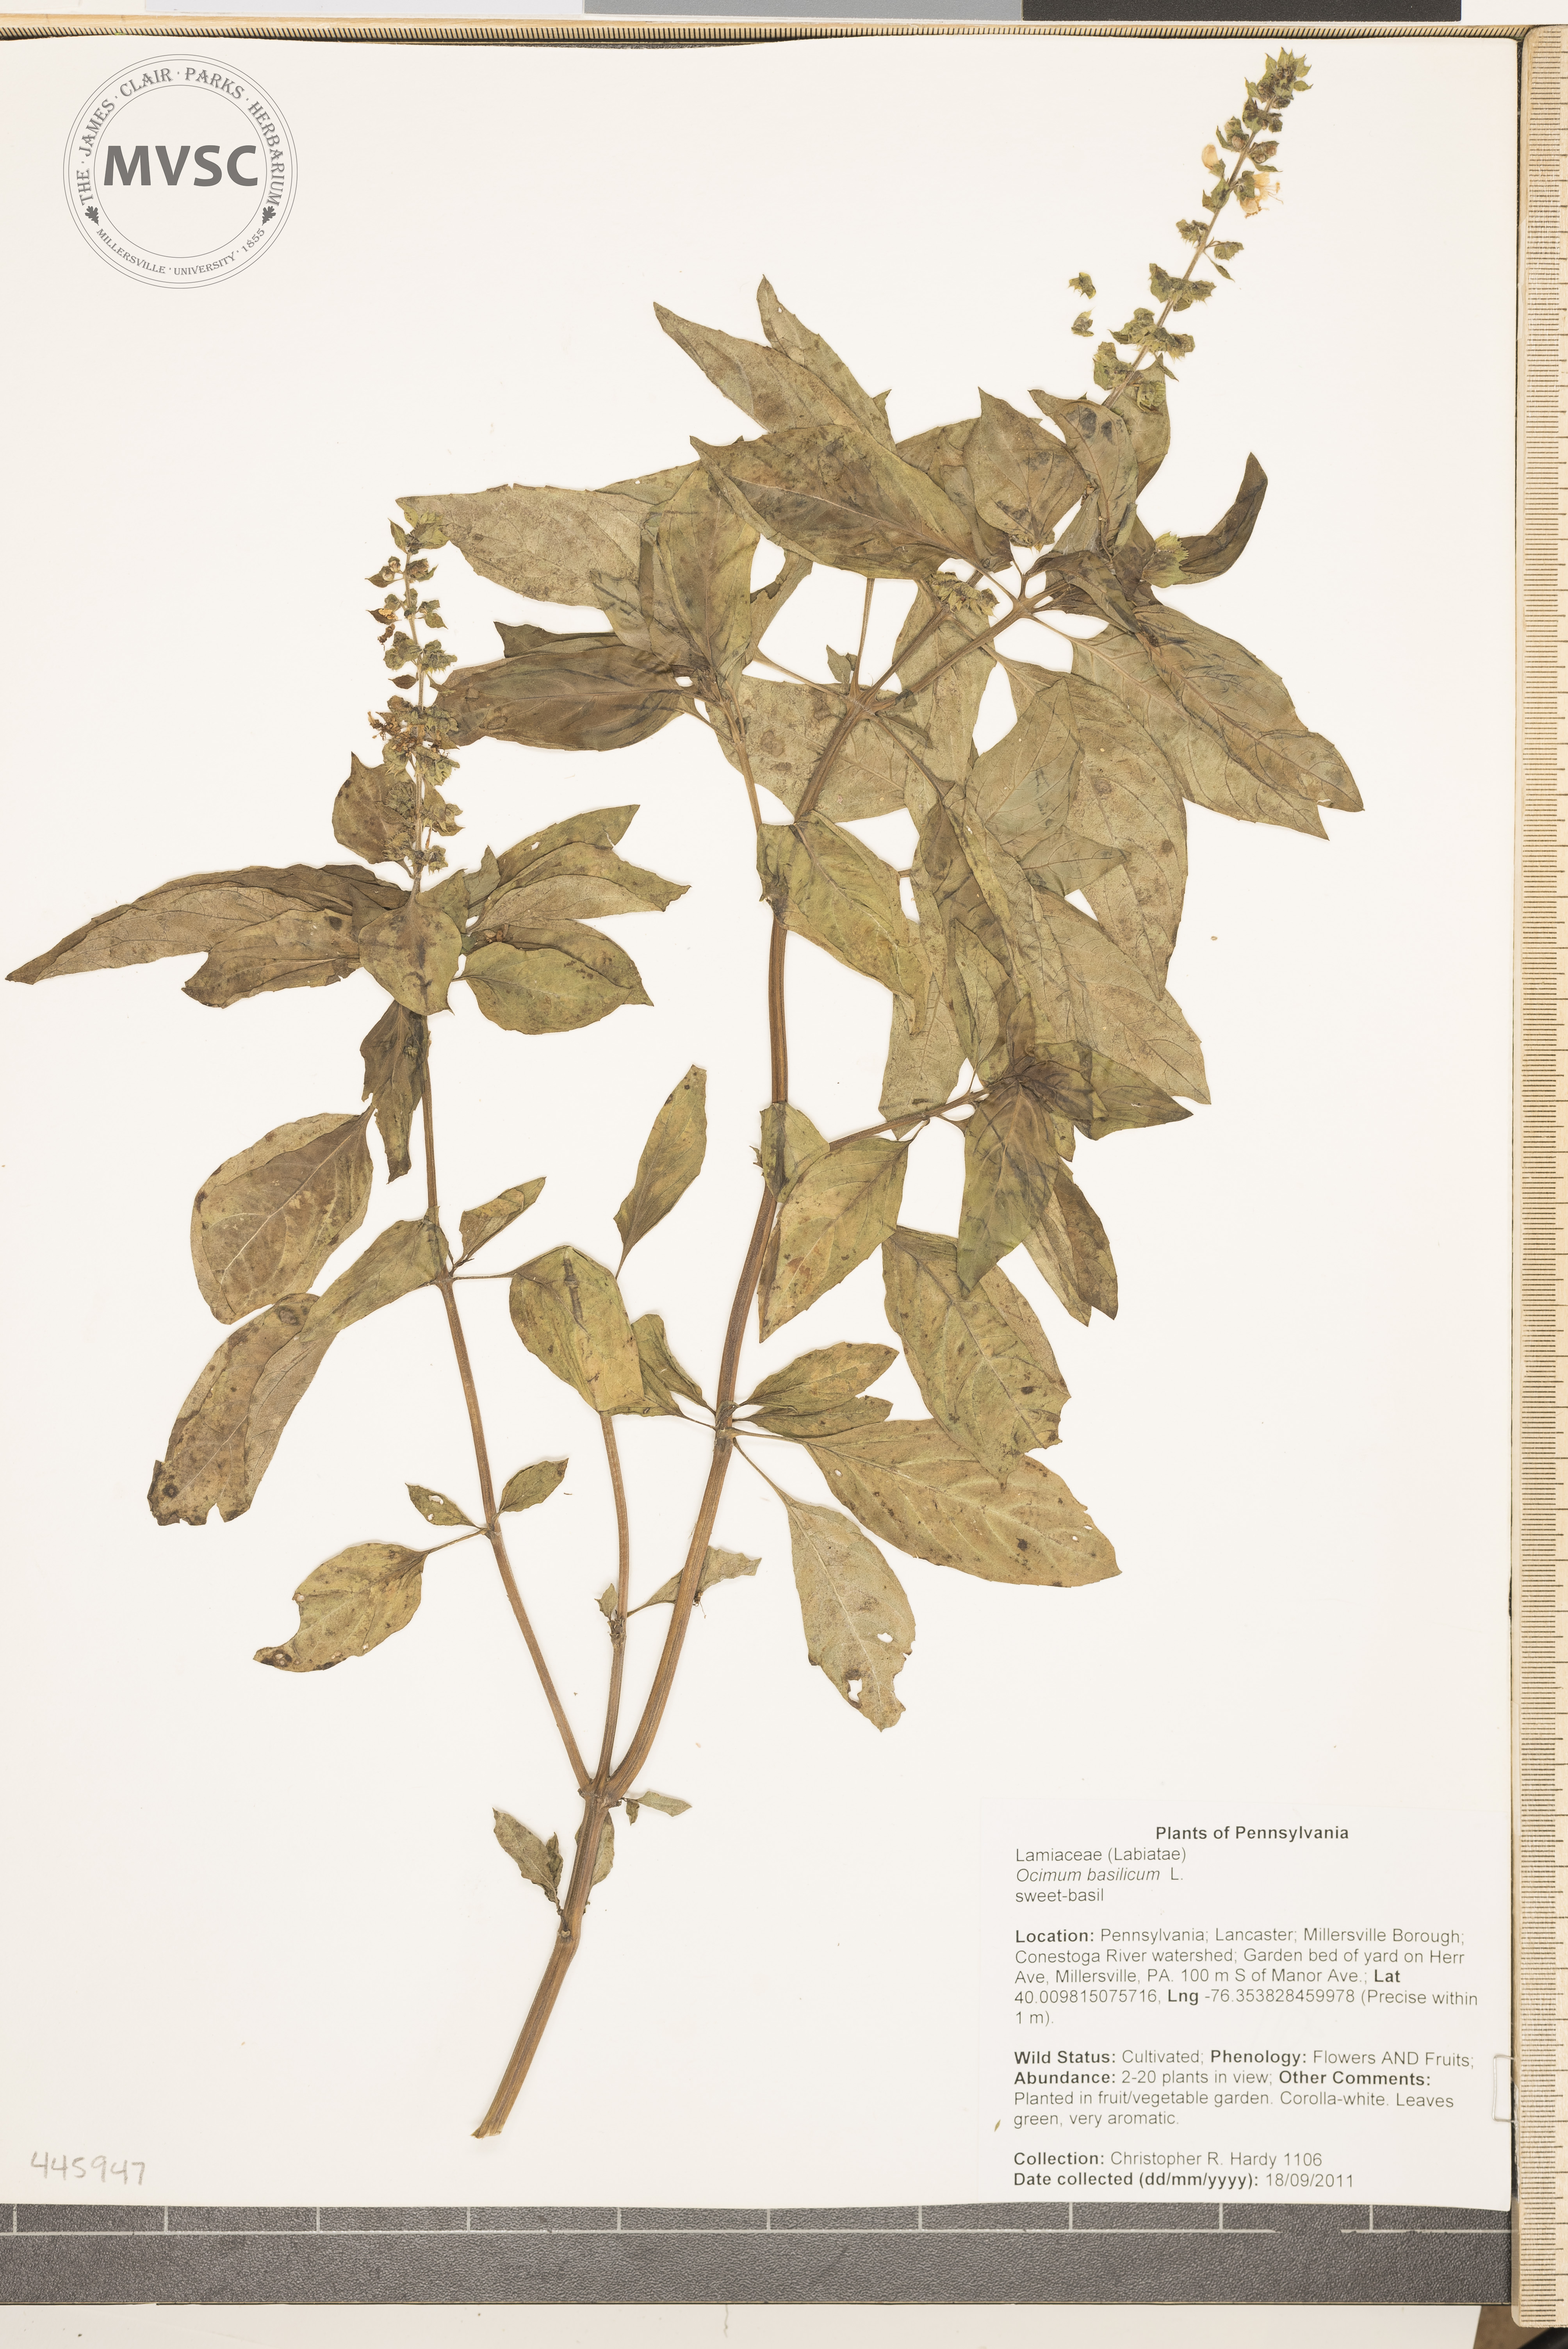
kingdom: Plantae
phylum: Tracheophyta
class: Magnoliopsida
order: Lamiales
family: Lamiaceae
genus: Ocimum
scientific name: Ocimum basilicum
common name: sweet-basil
